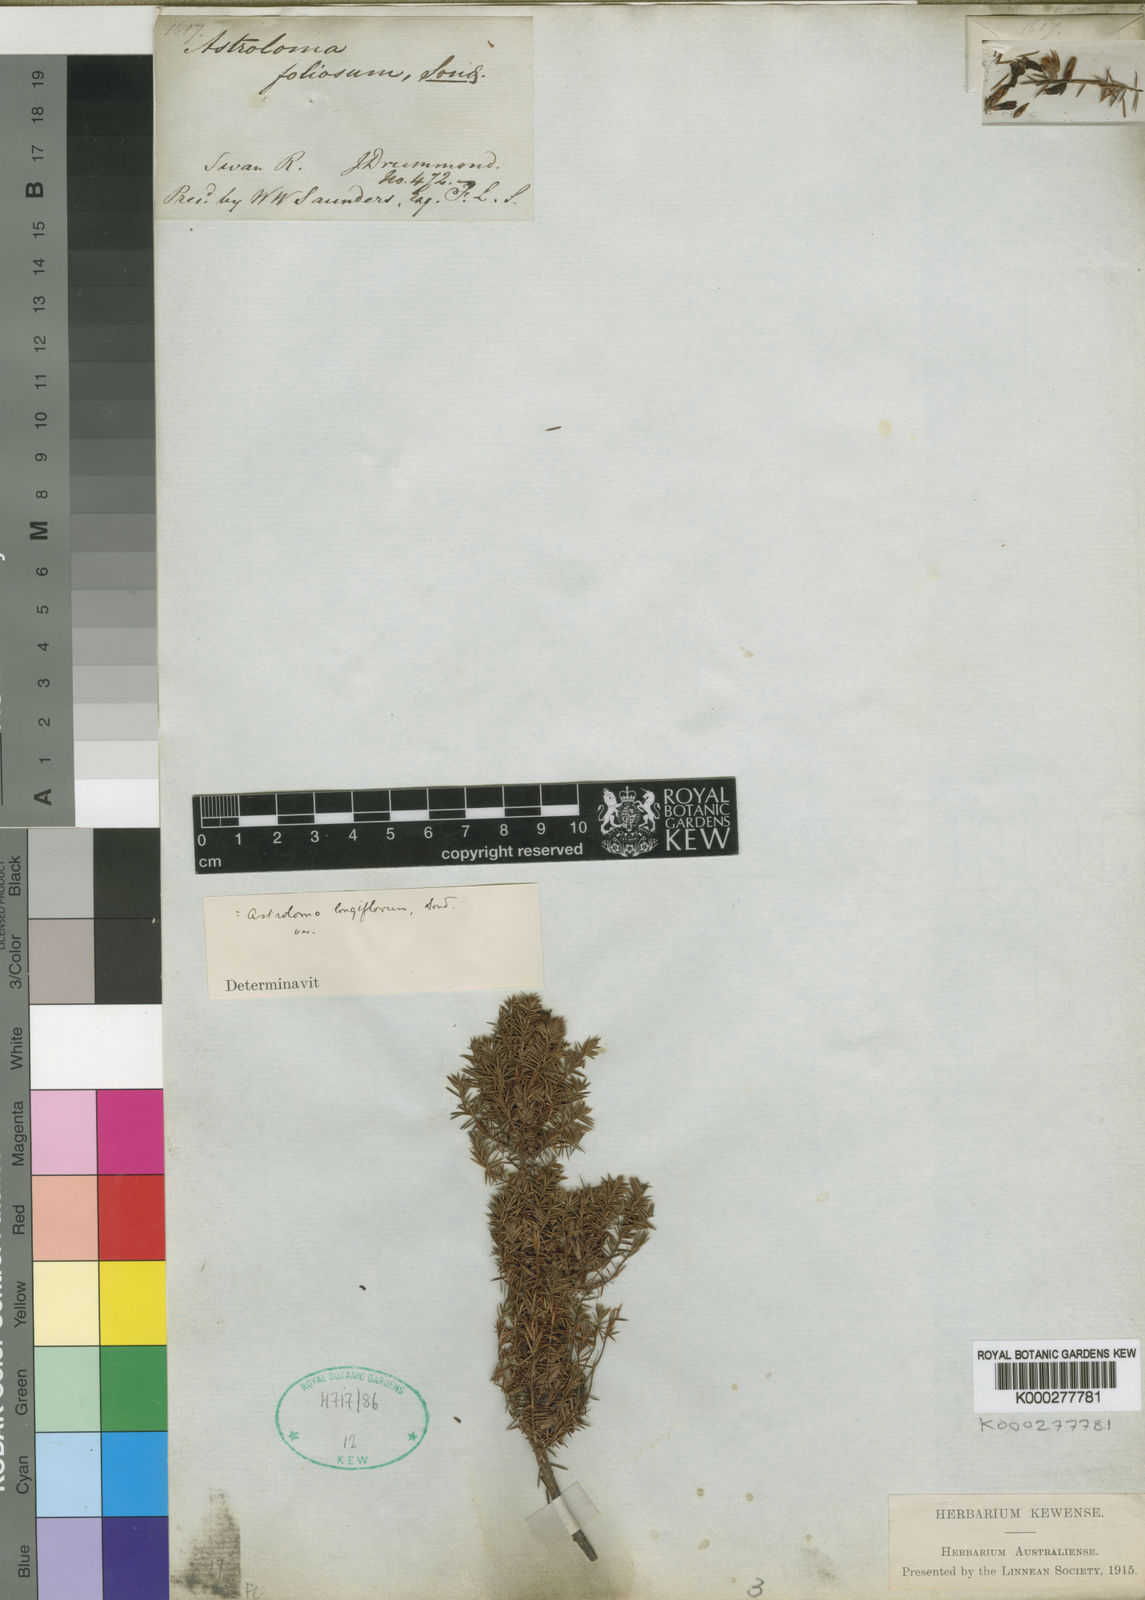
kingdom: Plantae
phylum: Tracheophyta
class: Magnoliopsida
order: Ericales
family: Ericaceae
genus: Styphelia
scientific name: Styphelia discolor
